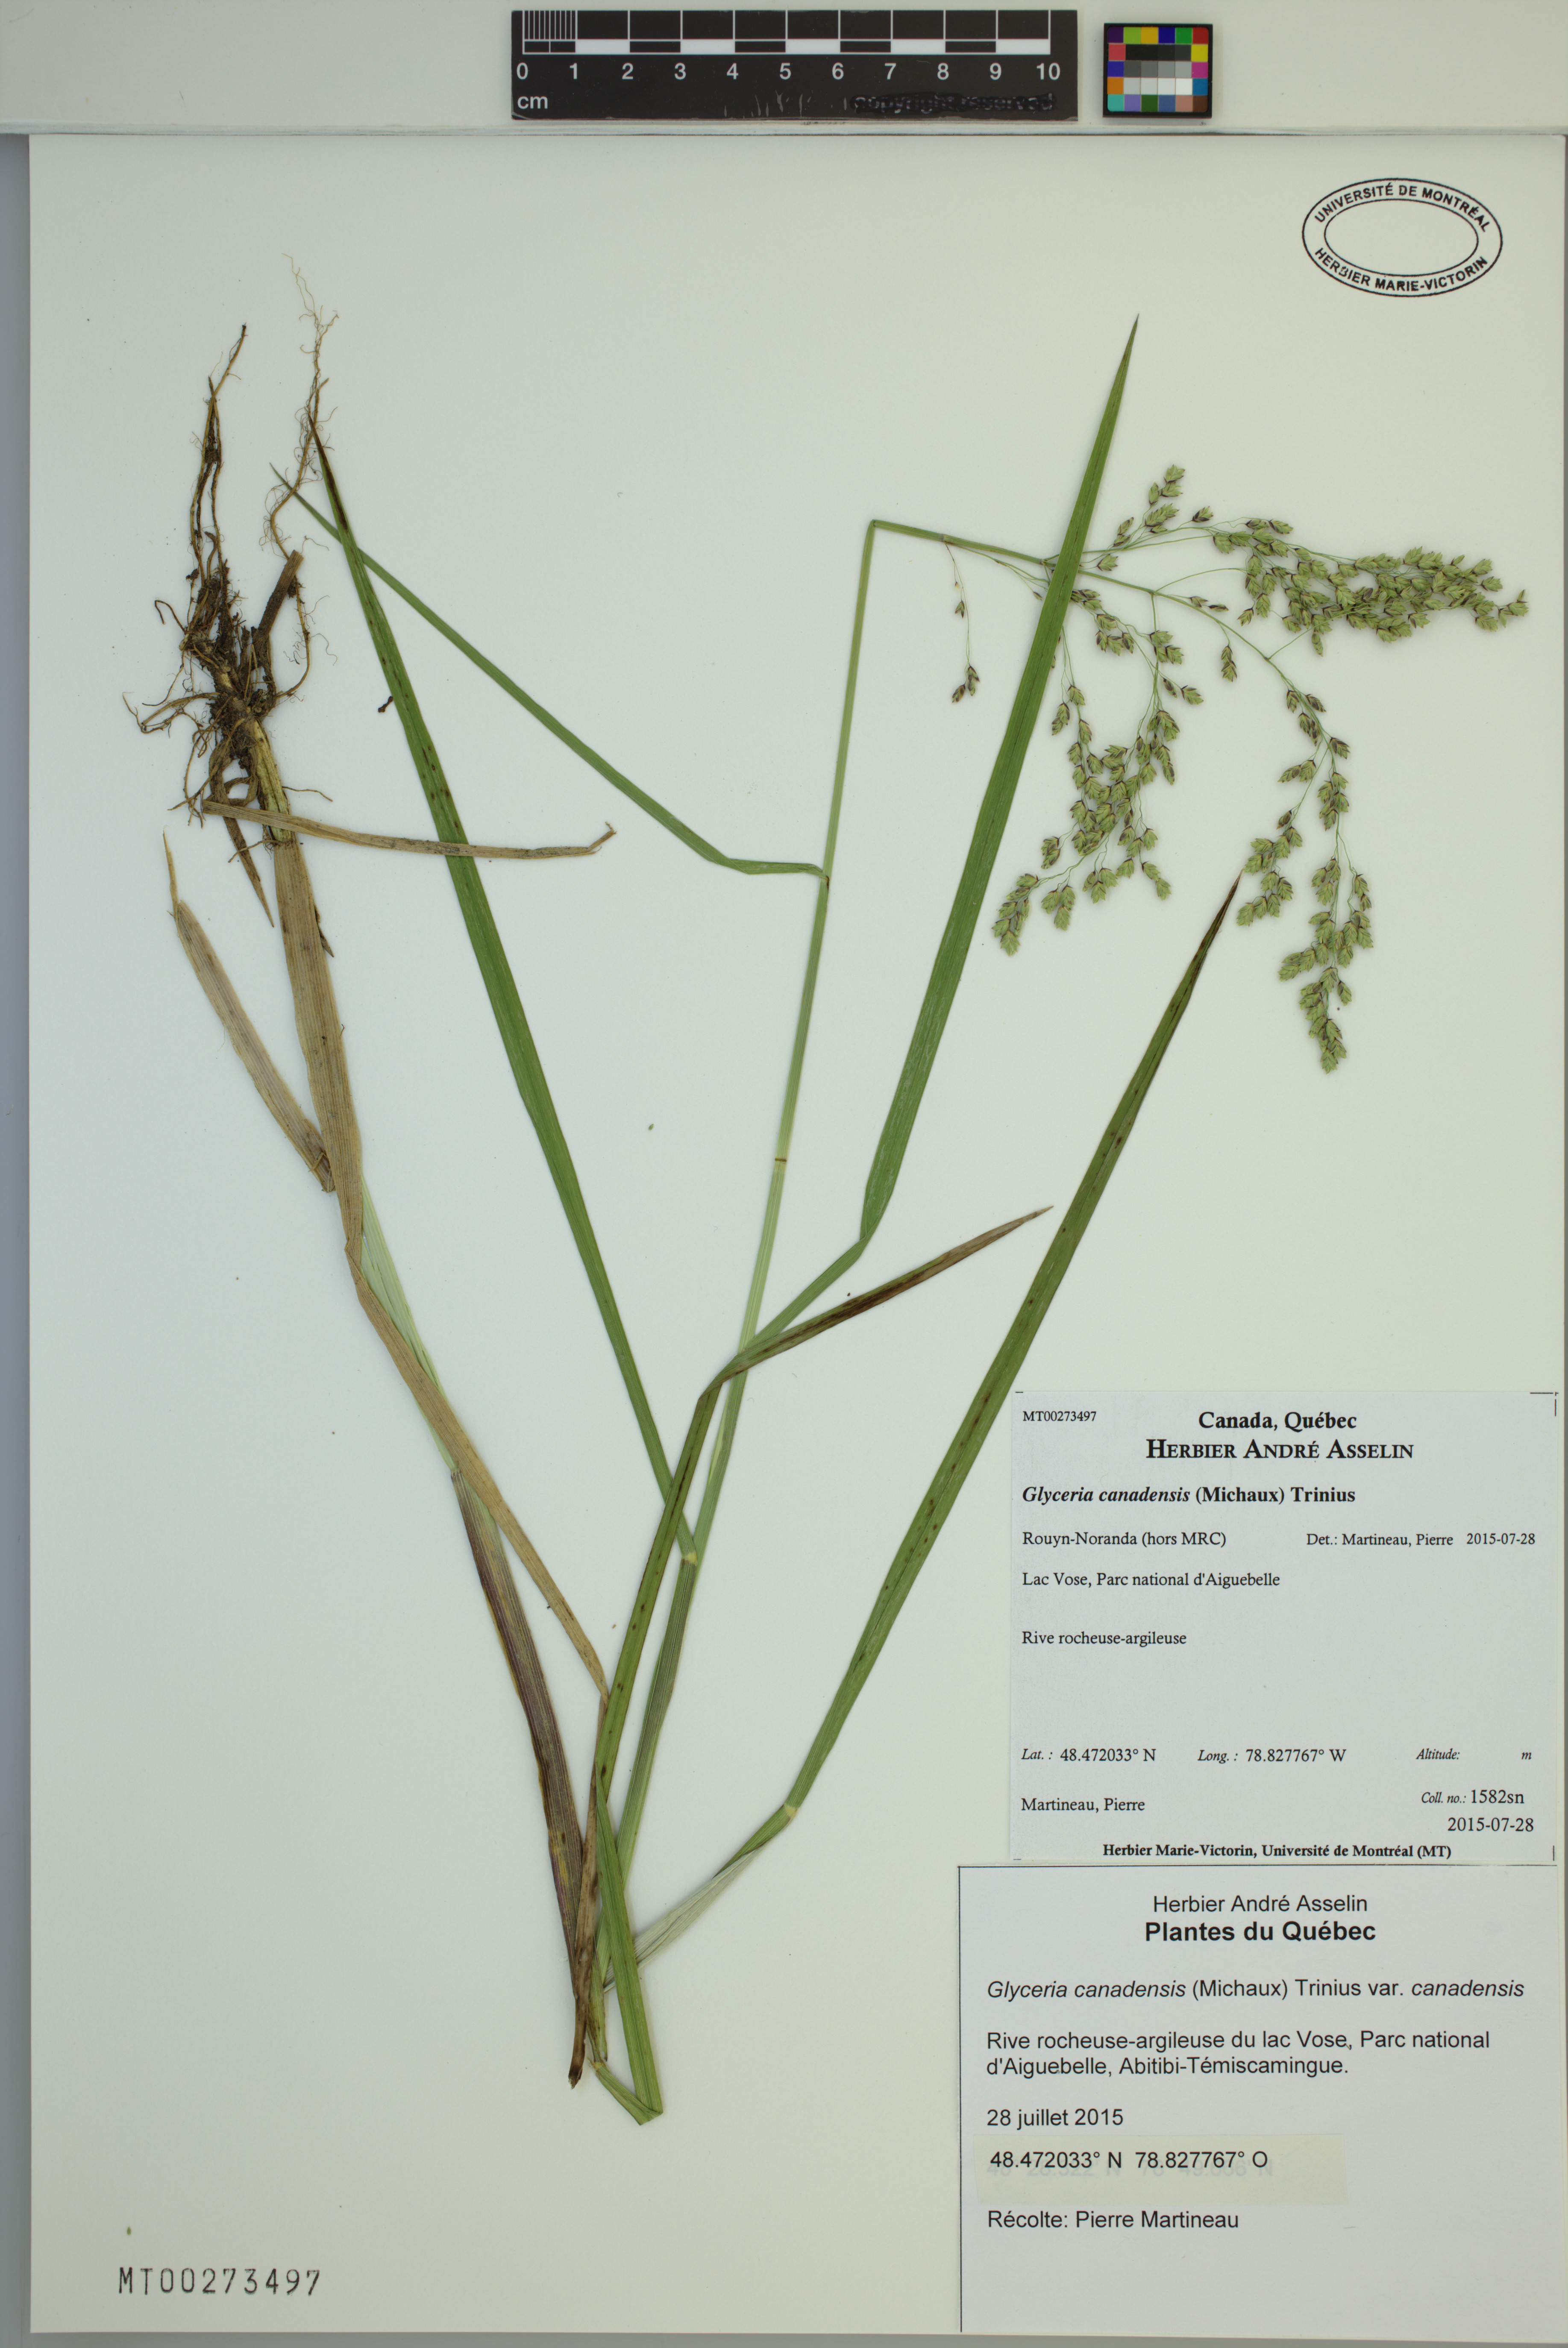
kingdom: Plantae
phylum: Tracheophyta
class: Liliopsida
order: Poales
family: Poaceae
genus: Glyceria
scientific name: Glyceria canadensis
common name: Canada mannagrass
